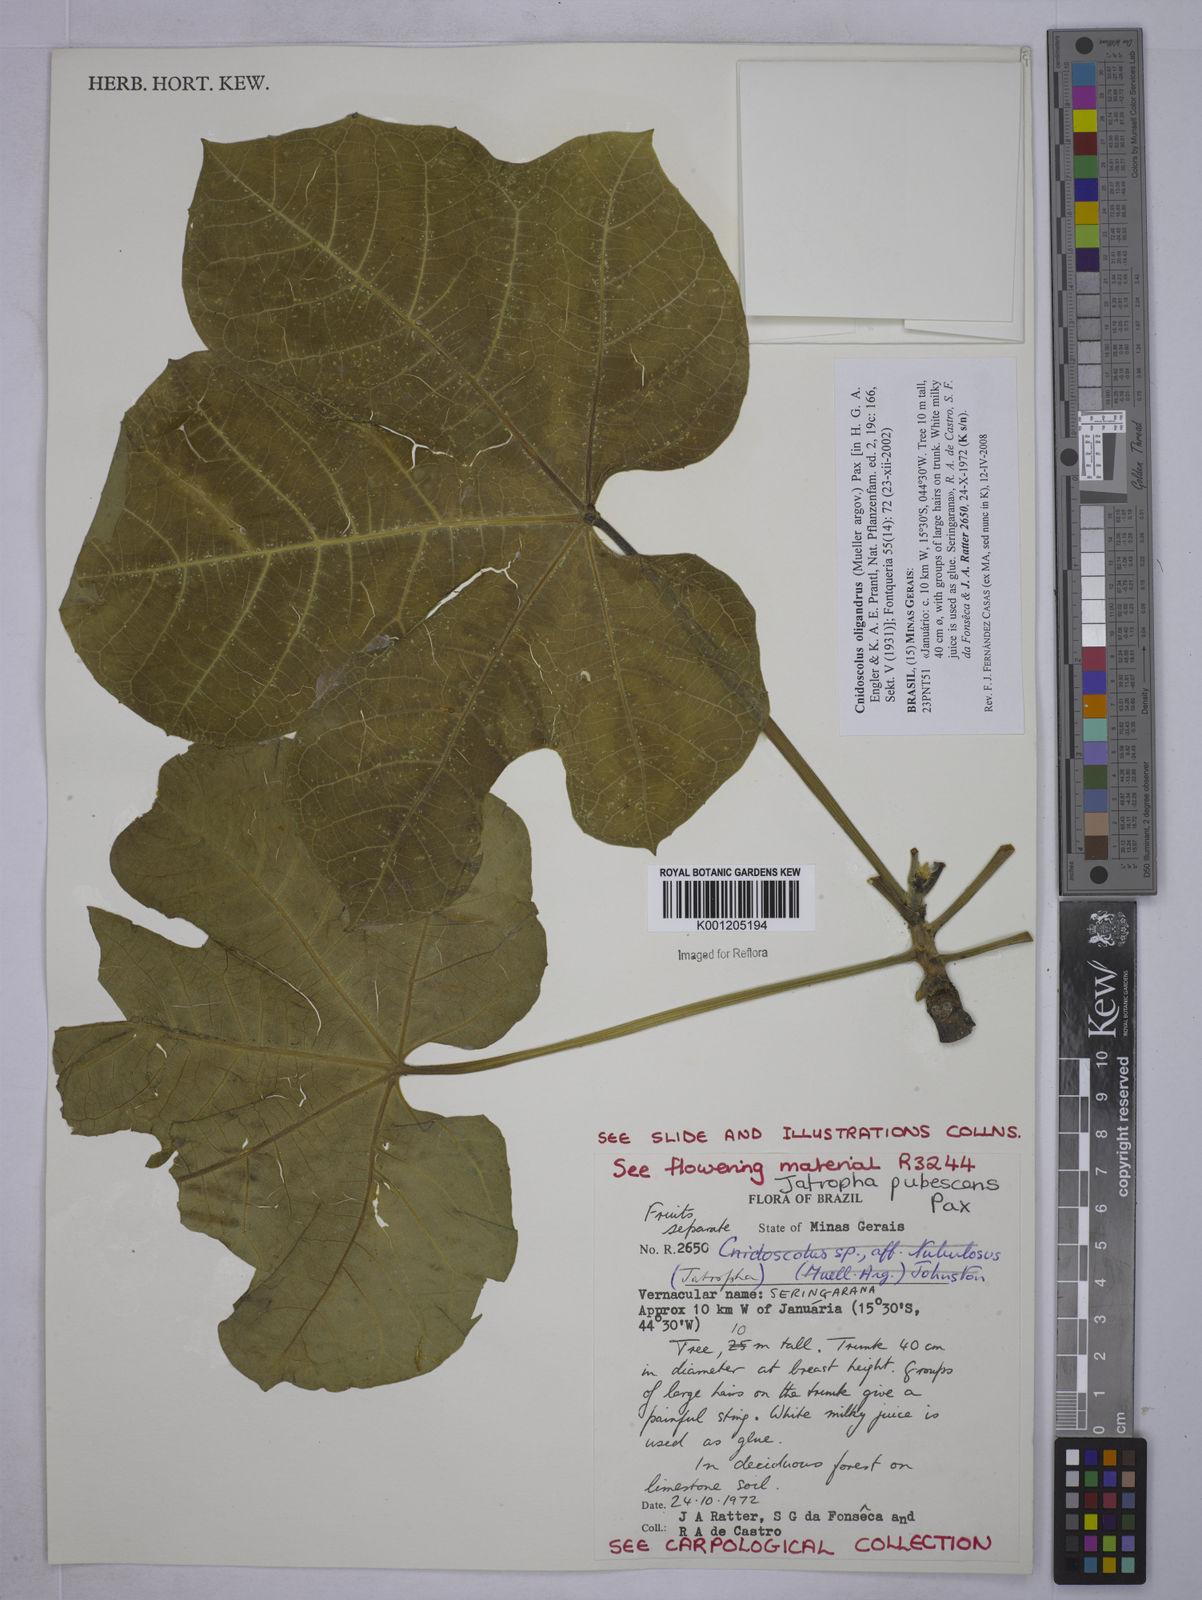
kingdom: Plantae
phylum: Tracheophyta
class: Magnoliopsida
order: Malpighiales
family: Euphorbiaceae
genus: Cnidoscolus
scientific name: Cnidoscolus
